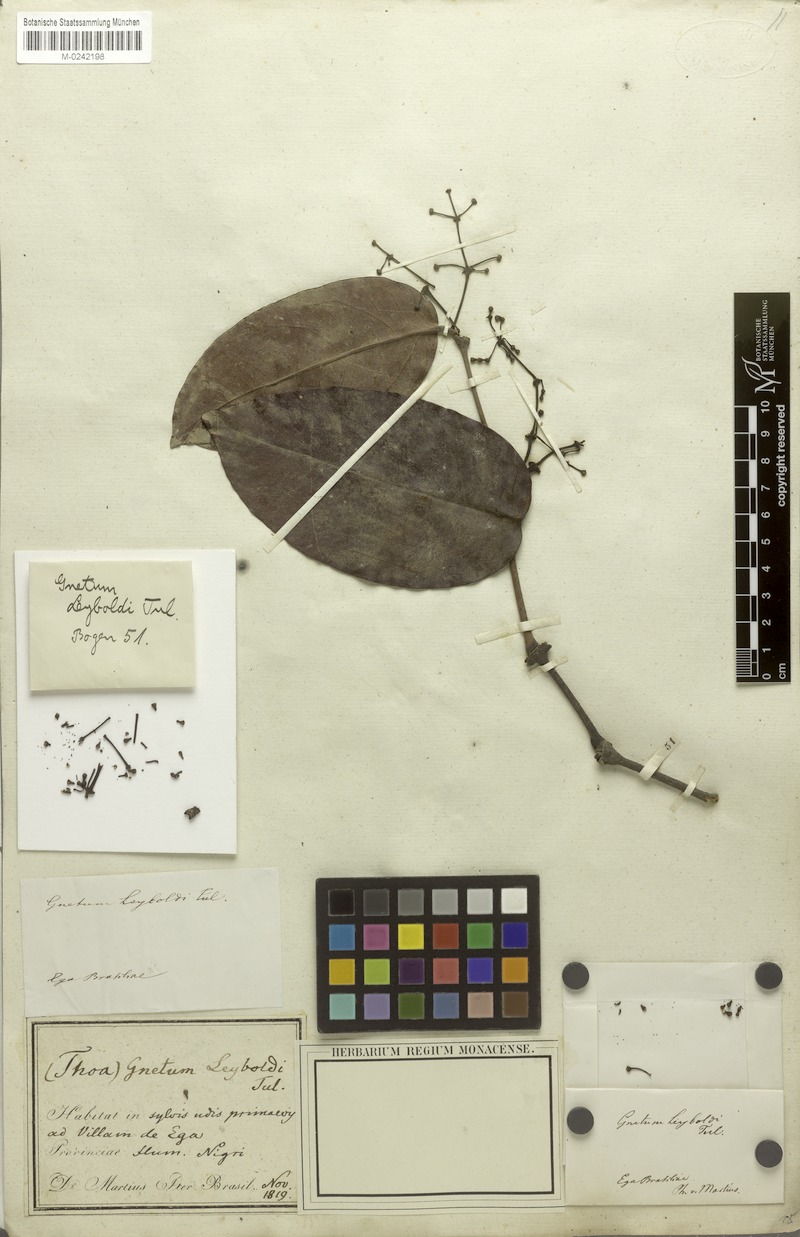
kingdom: Plantae
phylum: Tracheophyta
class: Gnetopsida
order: Gnetales
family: Gnetaceae
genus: Gnetum
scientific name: Gnetum leyboldii
